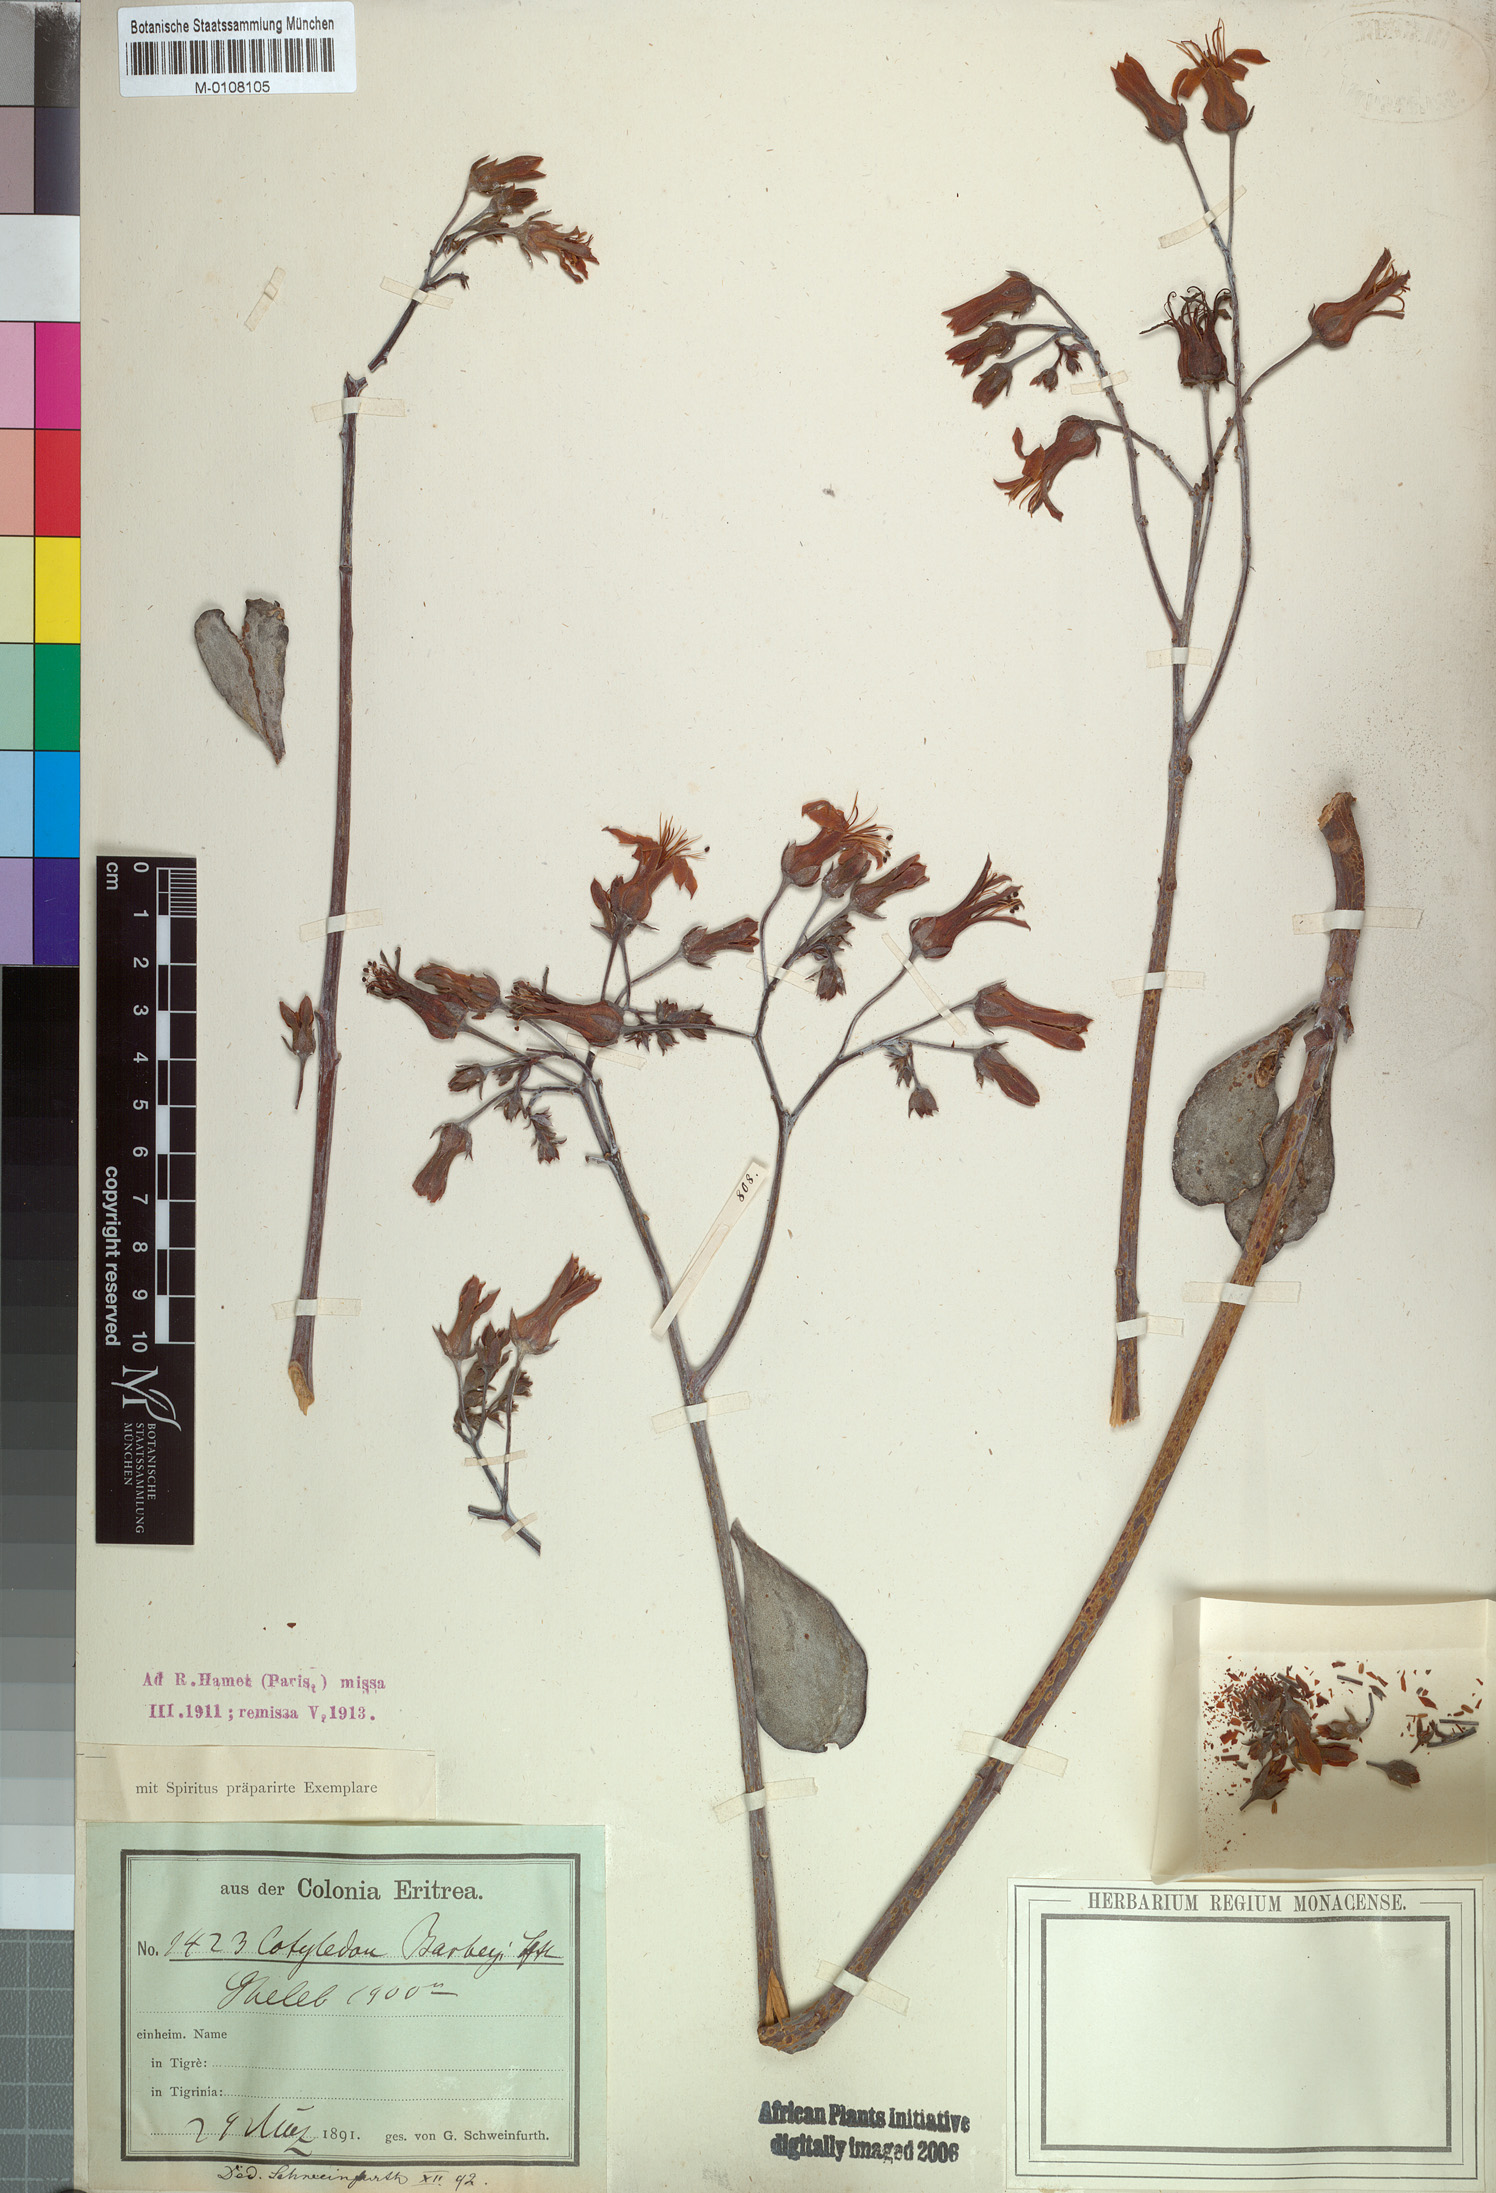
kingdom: Plantae
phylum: Tracheophyta
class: Magnoliopsida
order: Saxifragales
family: Crassulaceae
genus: Cotyledon
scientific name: Cotyledon barbeyi
